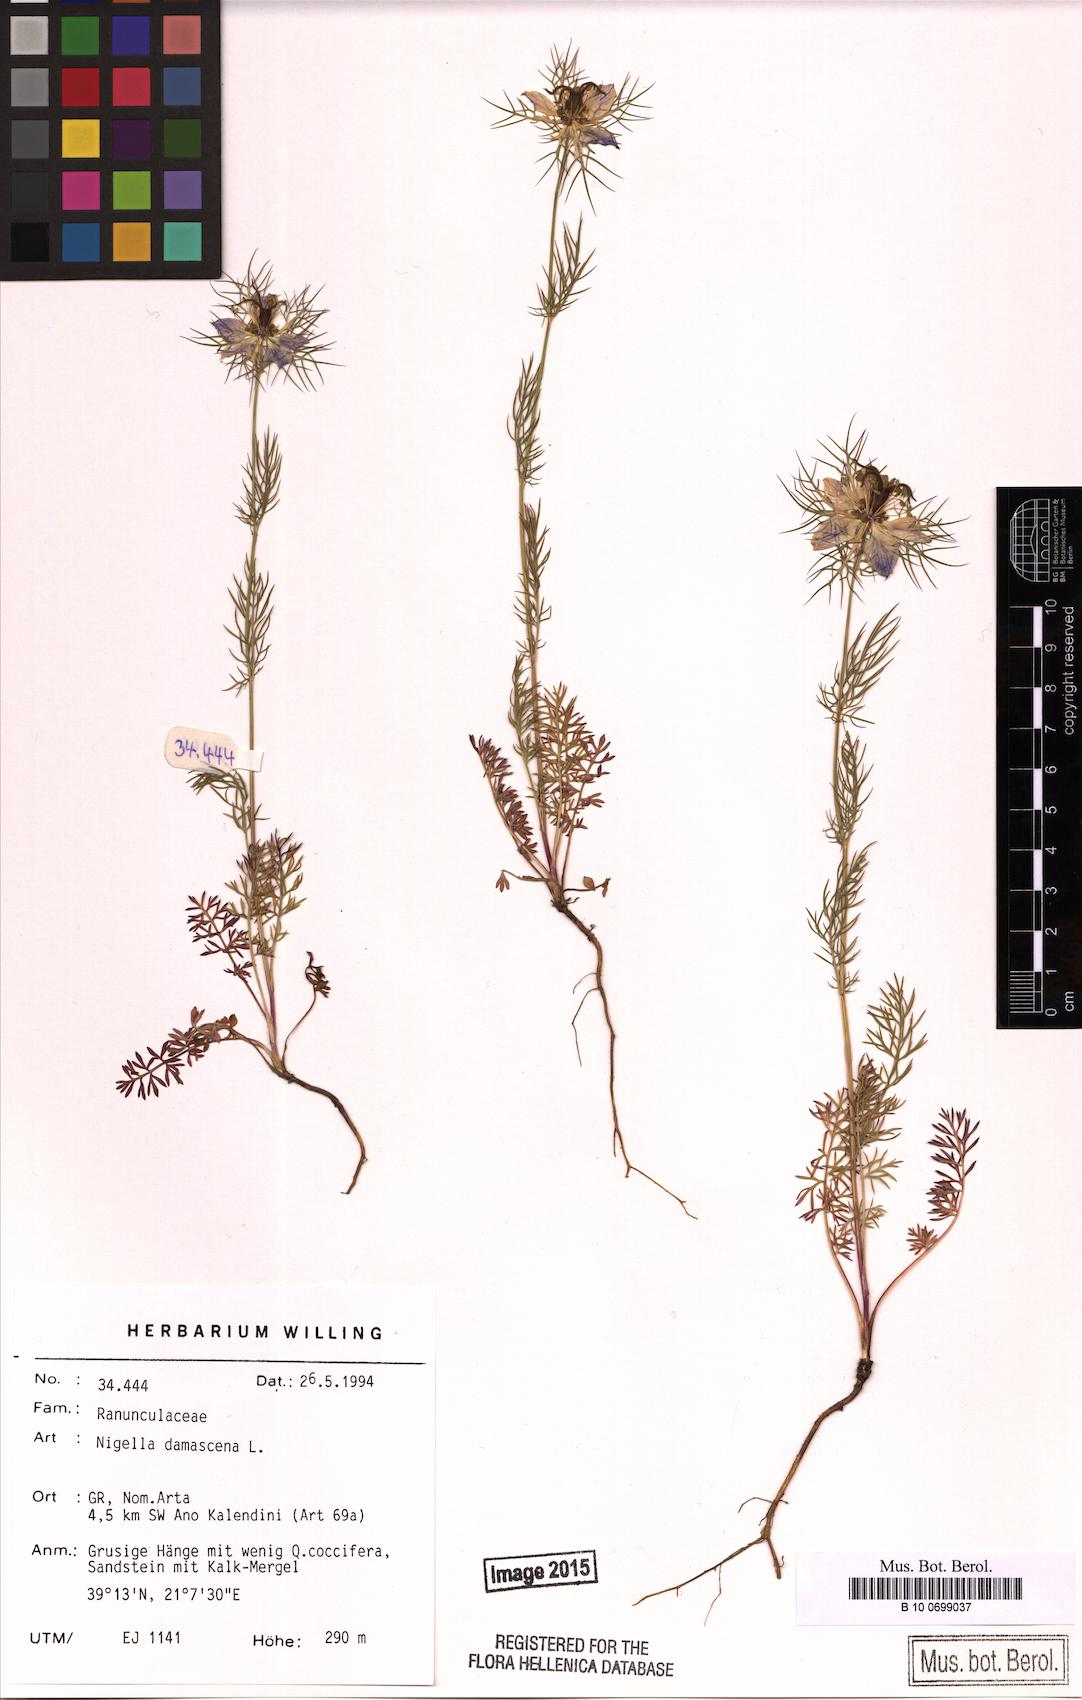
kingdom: Plantae
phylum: Tracheophyta
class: Magnoliopsida
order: Ranunculales
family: Ranunculaceae
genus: Nigella
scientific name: Nigella damascena
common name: Love-in-a-mist
